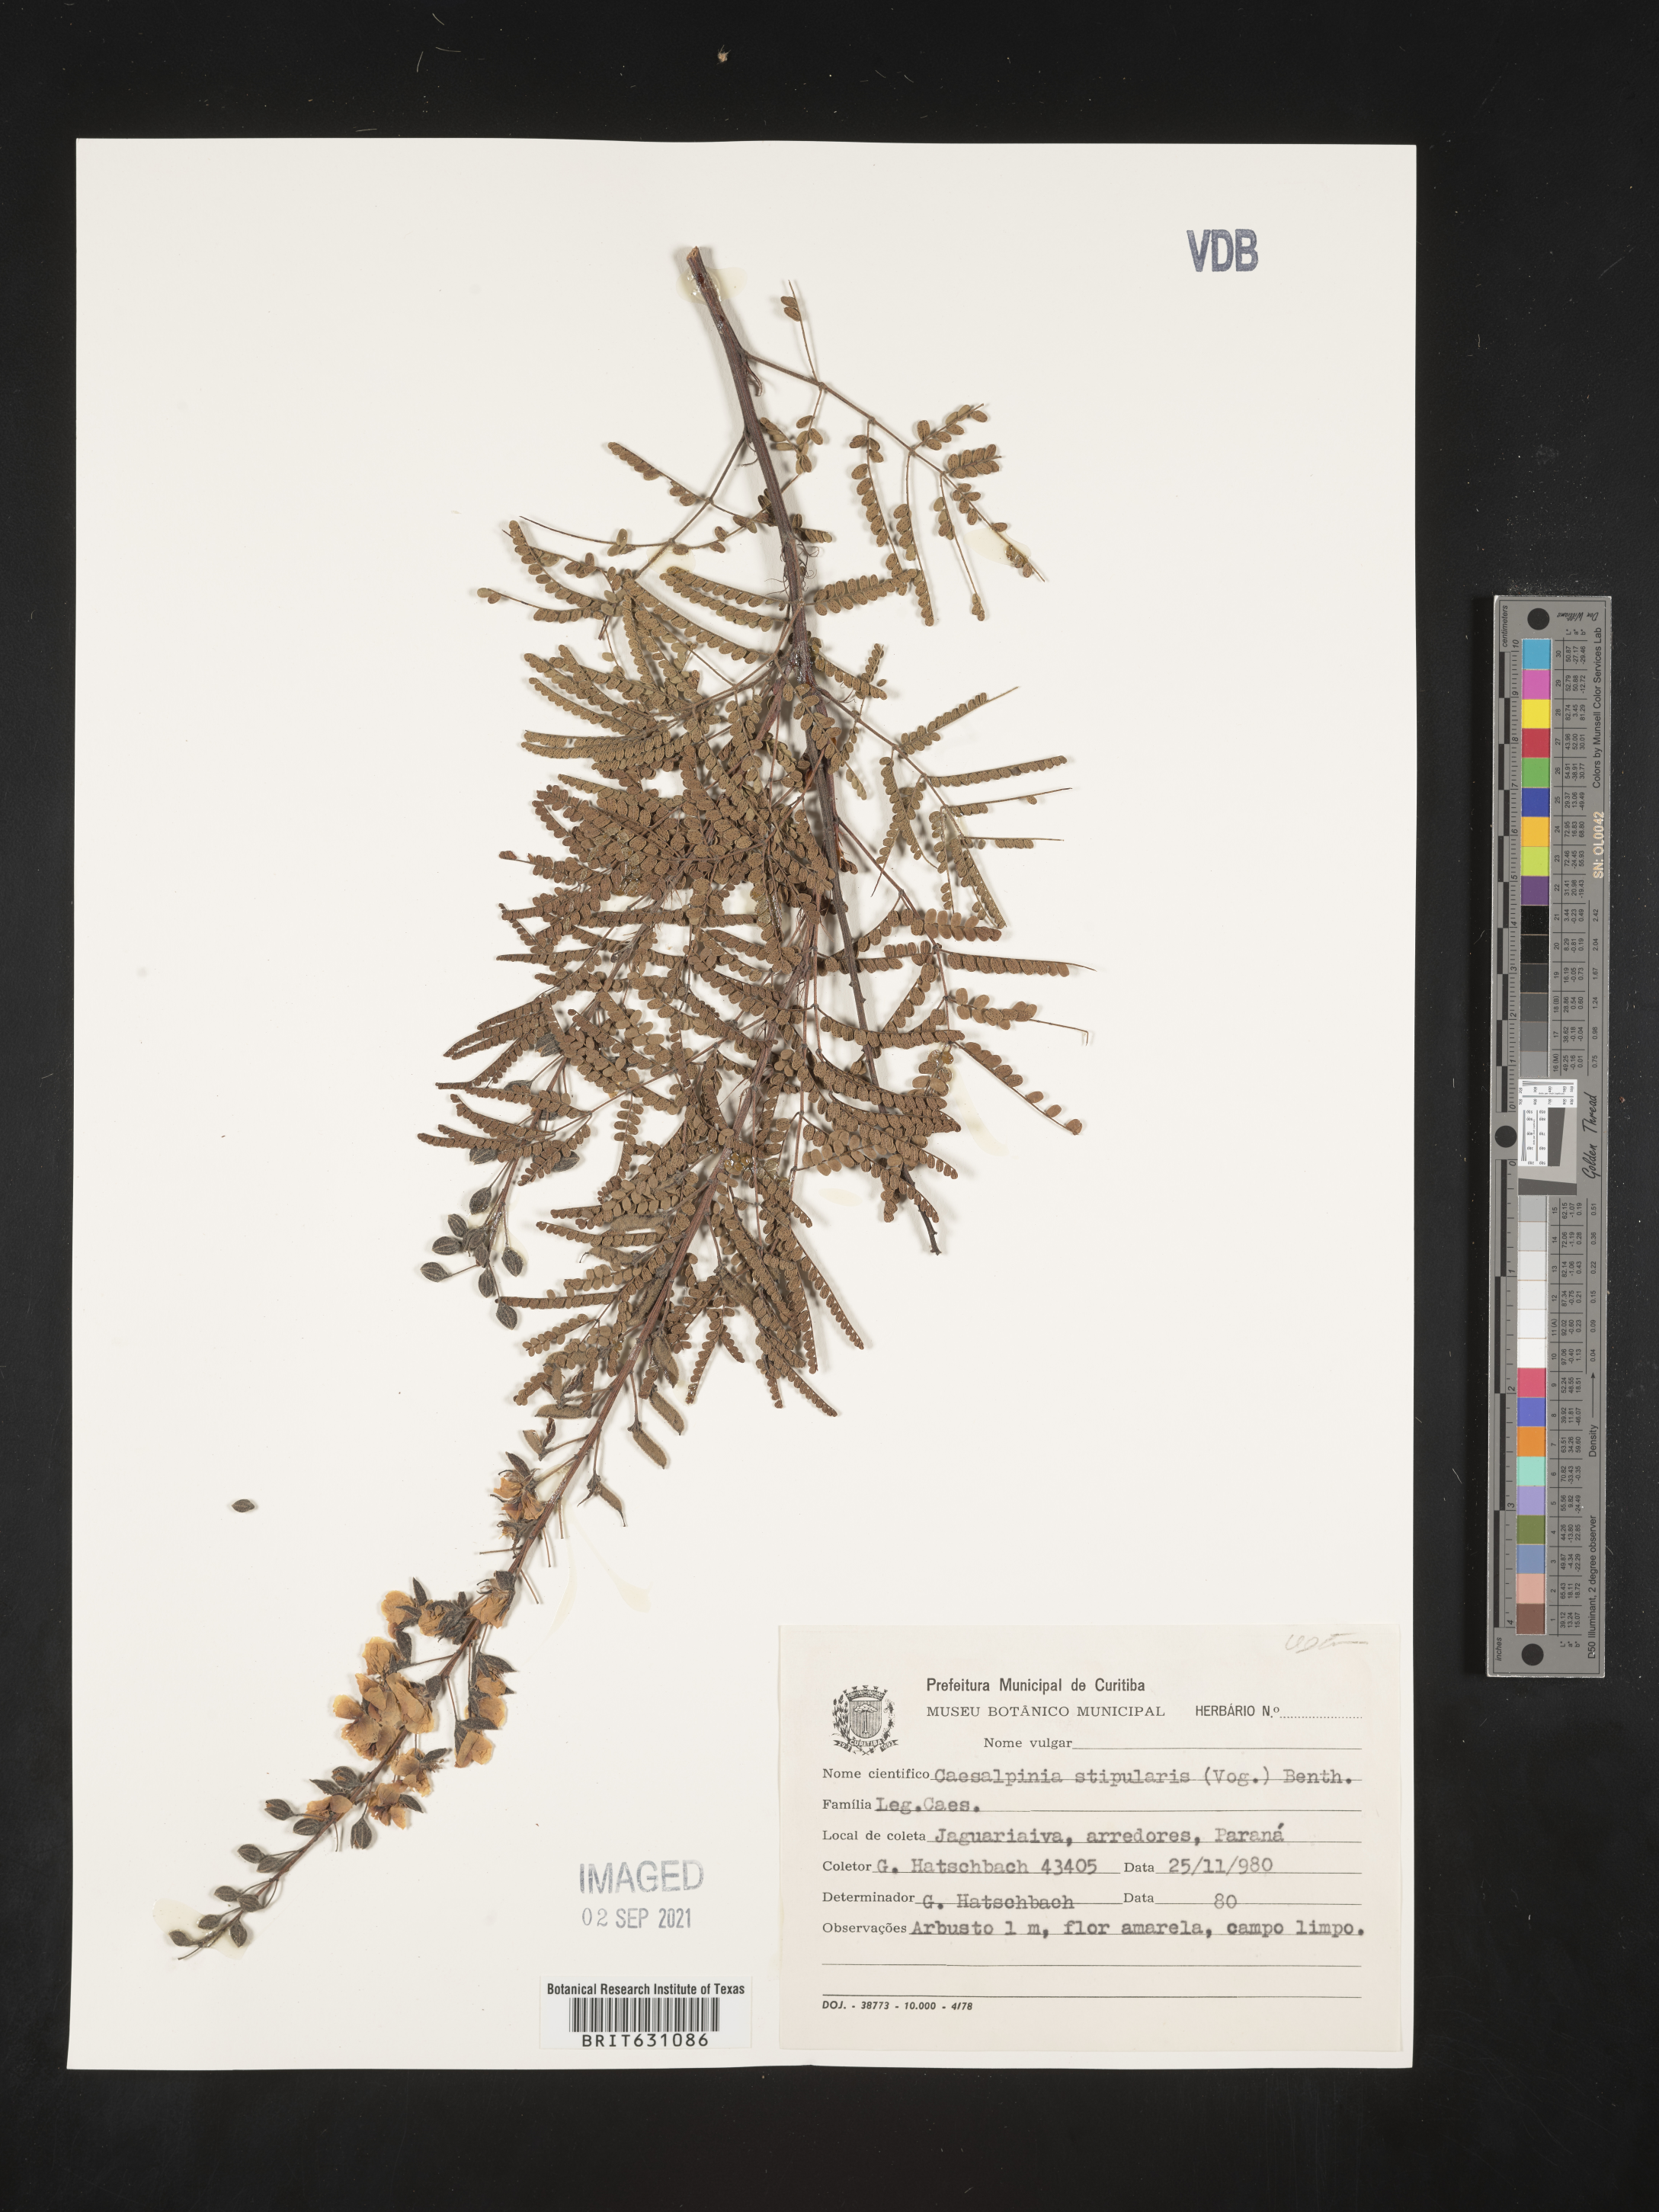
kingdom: Plantae
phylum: Tracheophyta
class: Magnoliopsida
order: Fabales
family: Fabaceae
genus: Caesalpinia
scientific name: Caesalpinia
